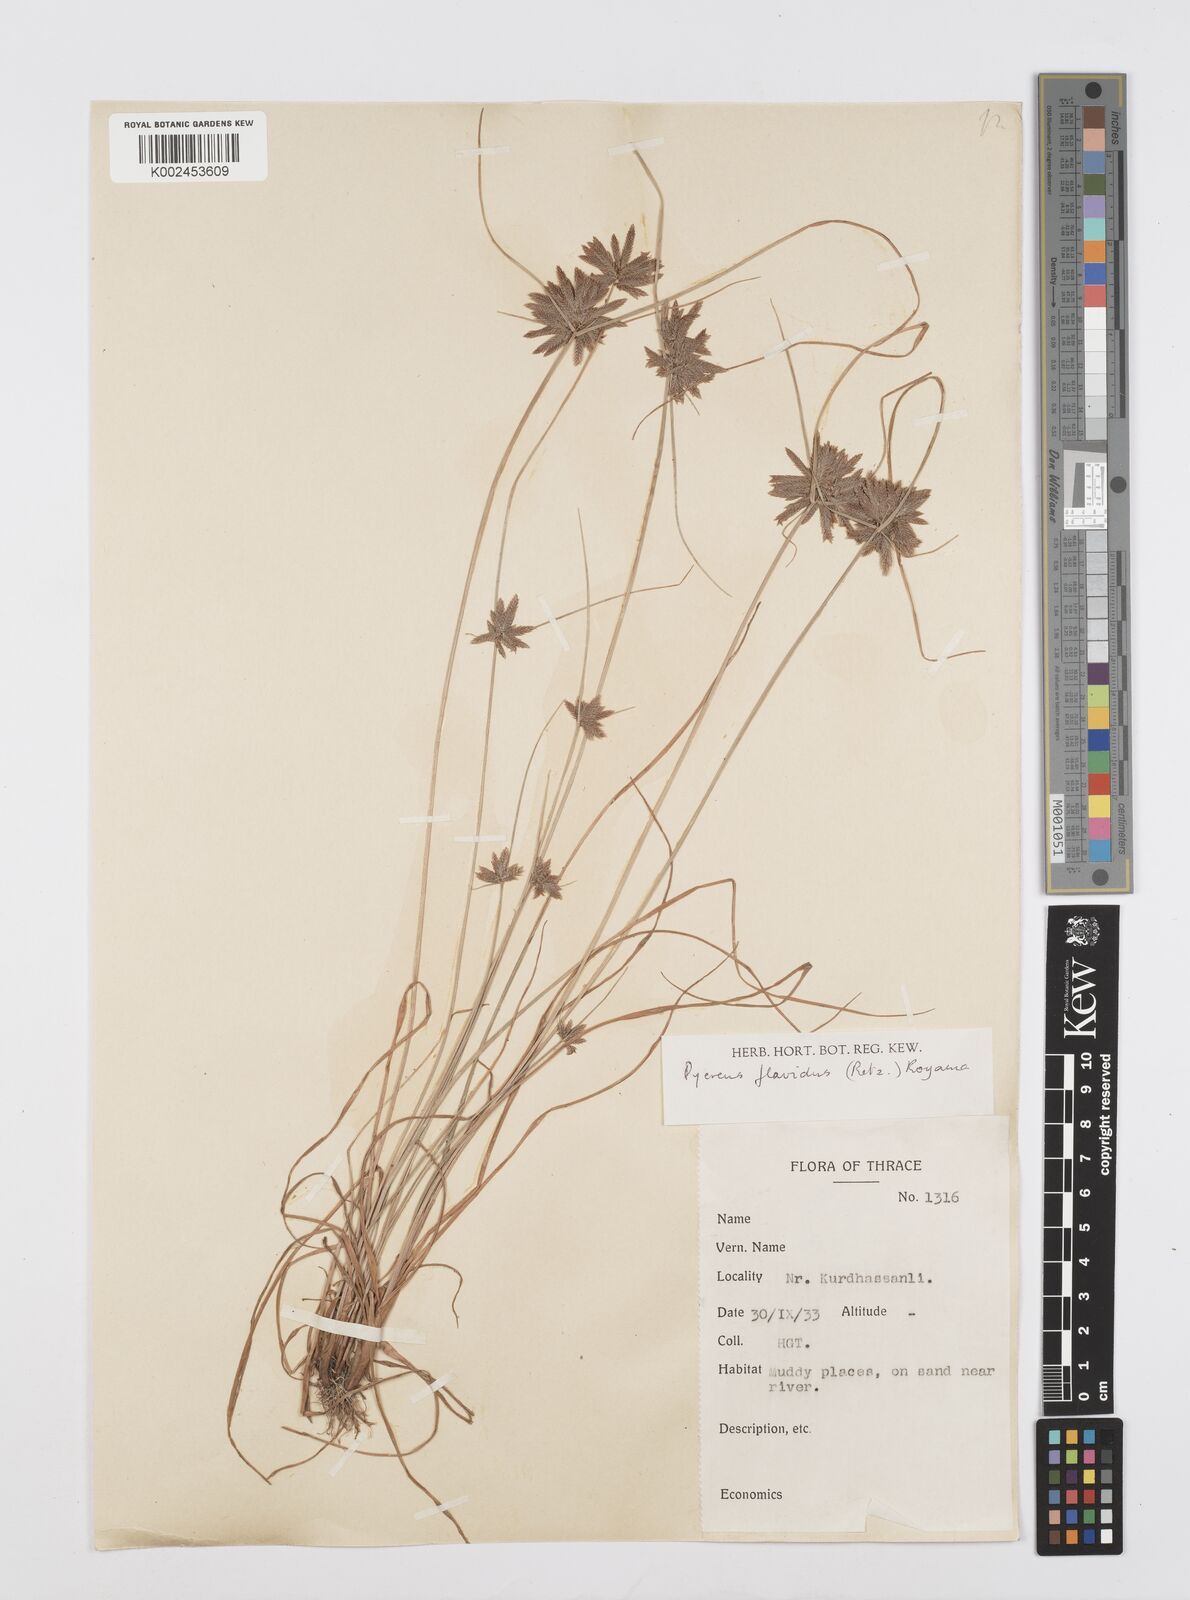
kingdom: Plantae
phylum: Tracheophyta
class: Liliopsida
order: Poales
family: Cyperaceae
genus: Cyperus
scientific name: Cyperus flavidus
